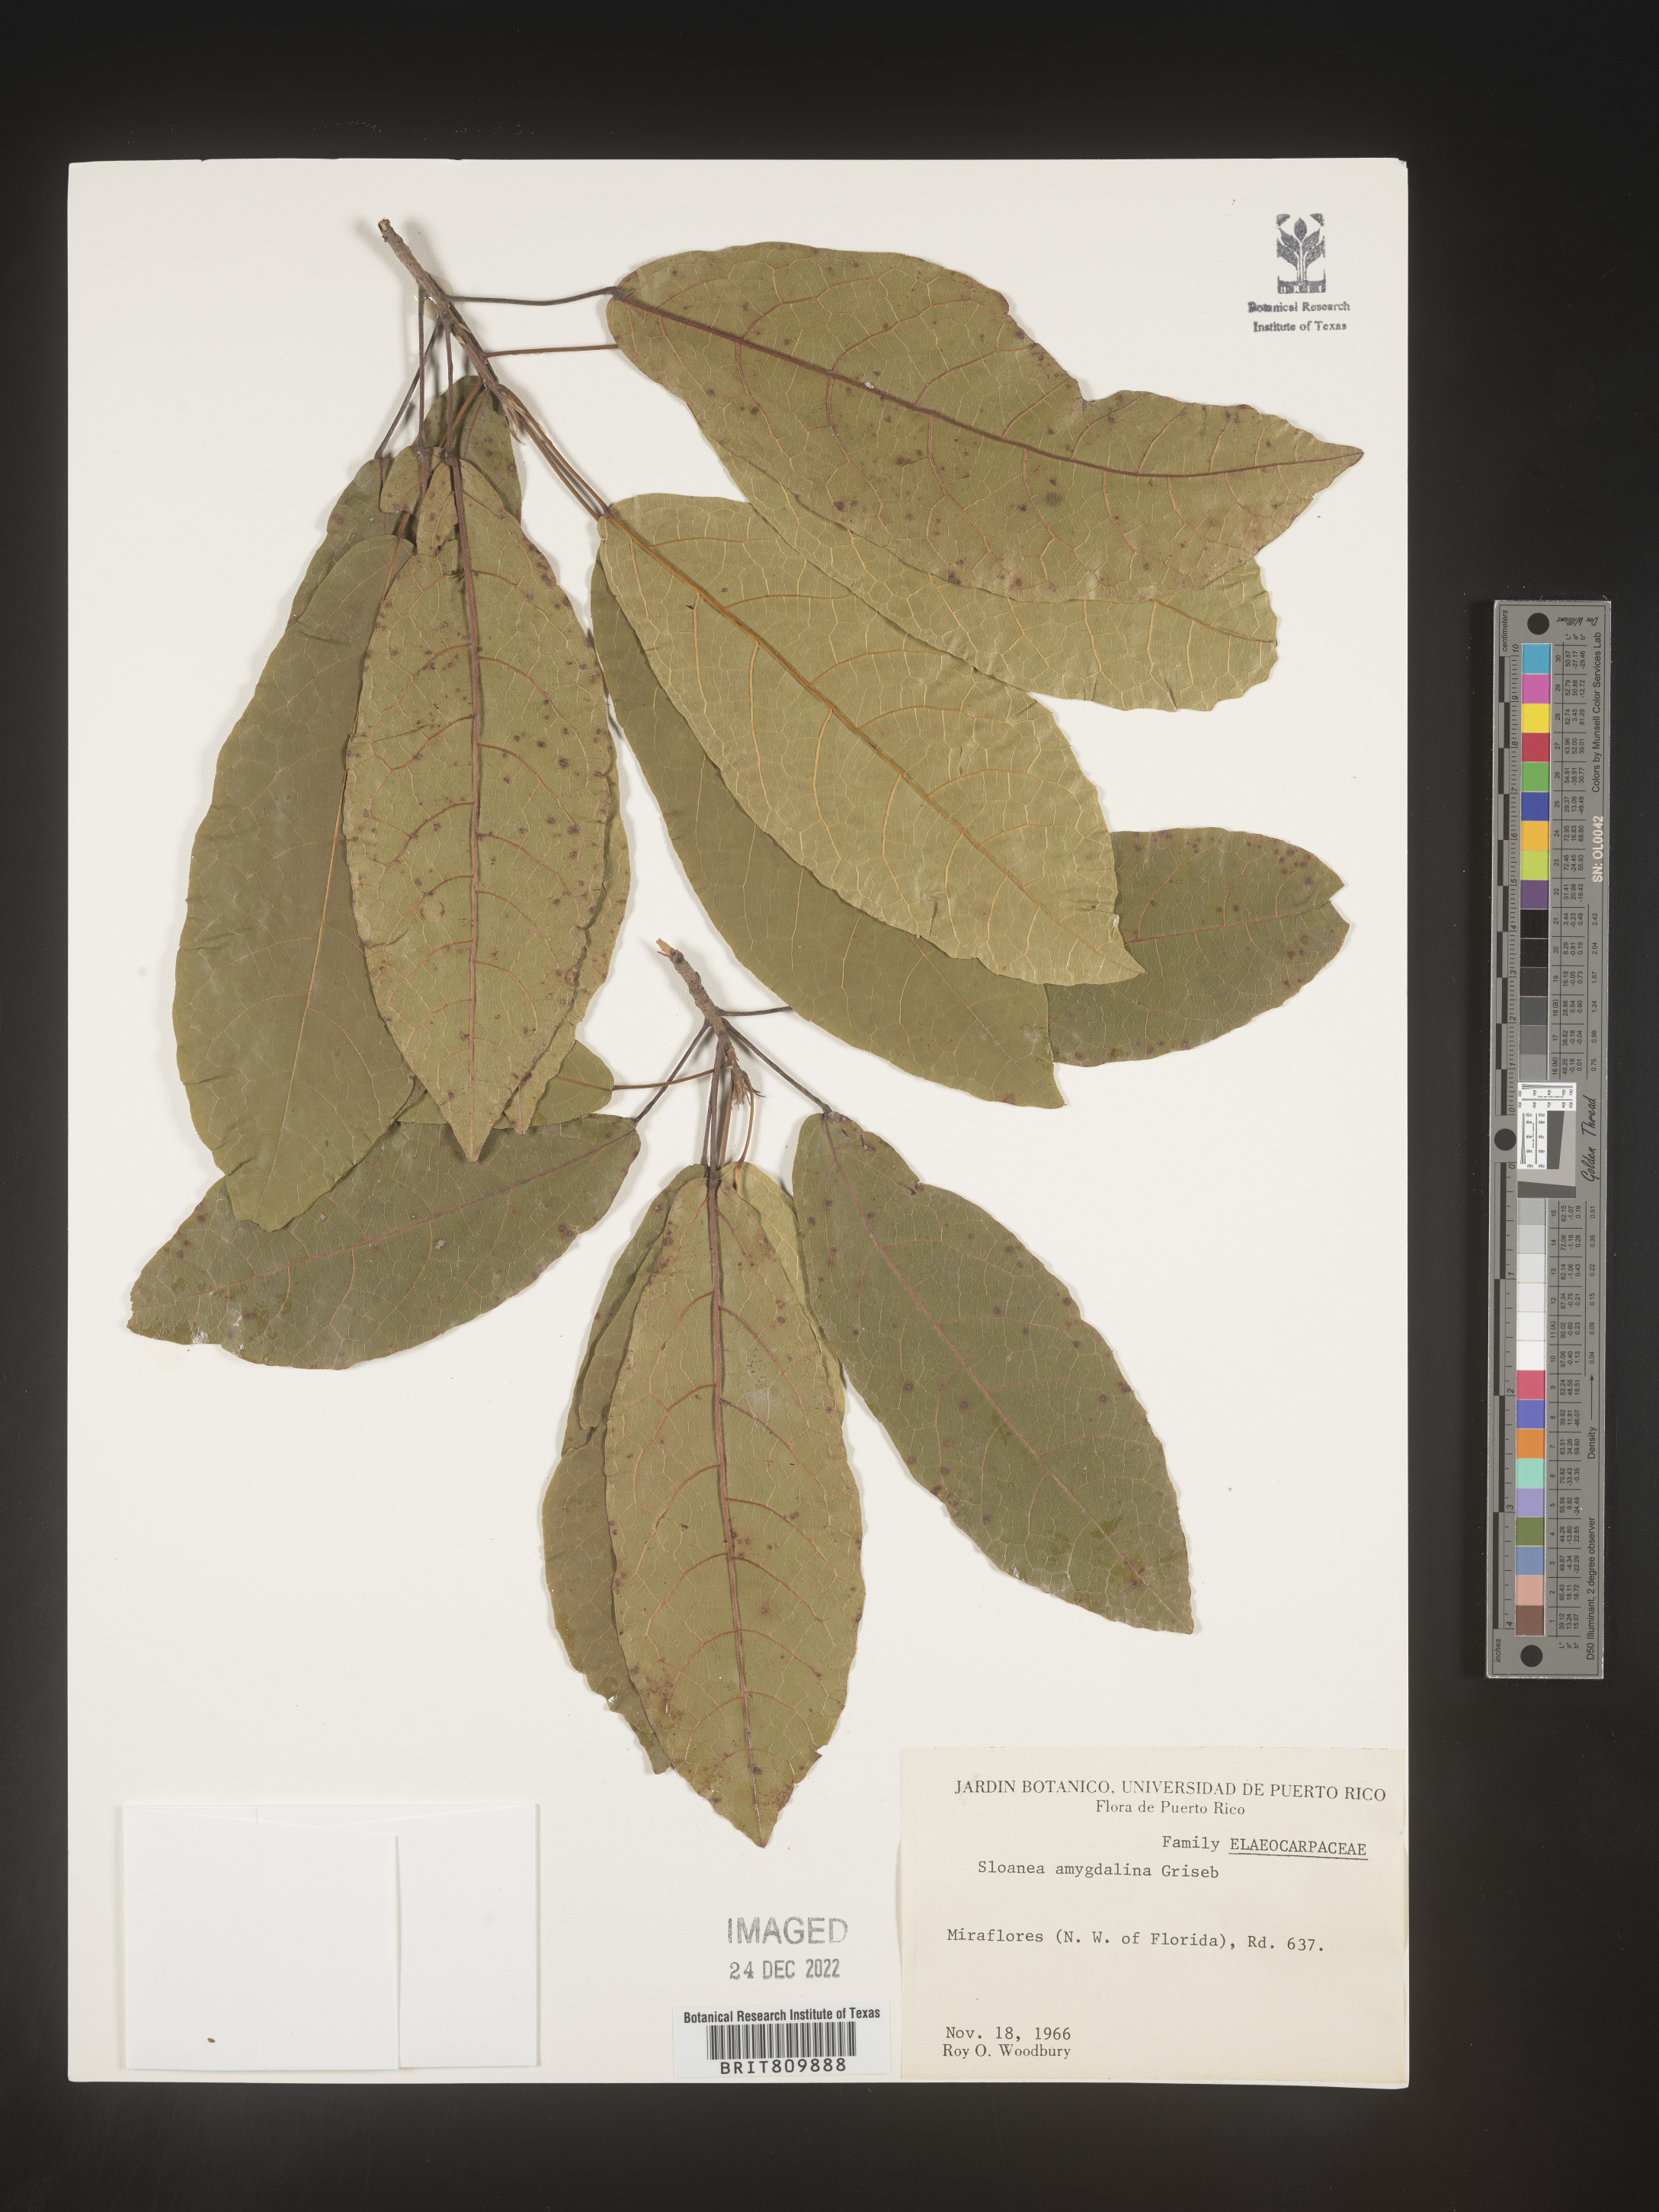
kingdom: Plantae
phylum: Tracheophyta
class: Magnoliopsida
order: Oxalidales
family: Elaeocarpaceae
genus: Sloanea
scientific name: Sloanea
